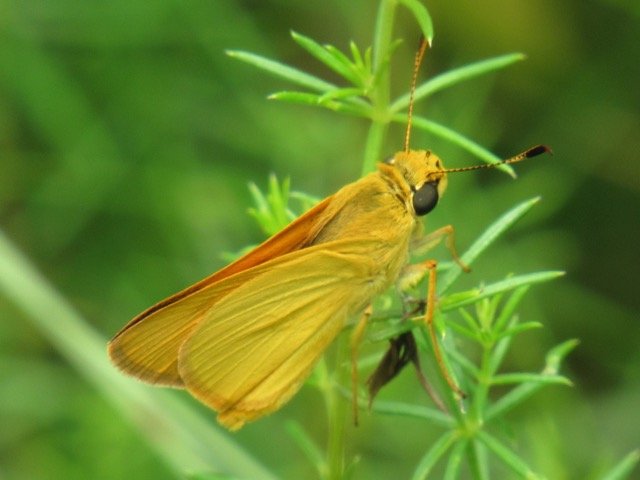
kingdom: Animalia
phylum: Arthropoda
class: Insecta
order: Lepidoptera
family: Hesperiidae
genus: Atrytone
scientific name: Atrytone delaware
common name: Delaware Skipper
